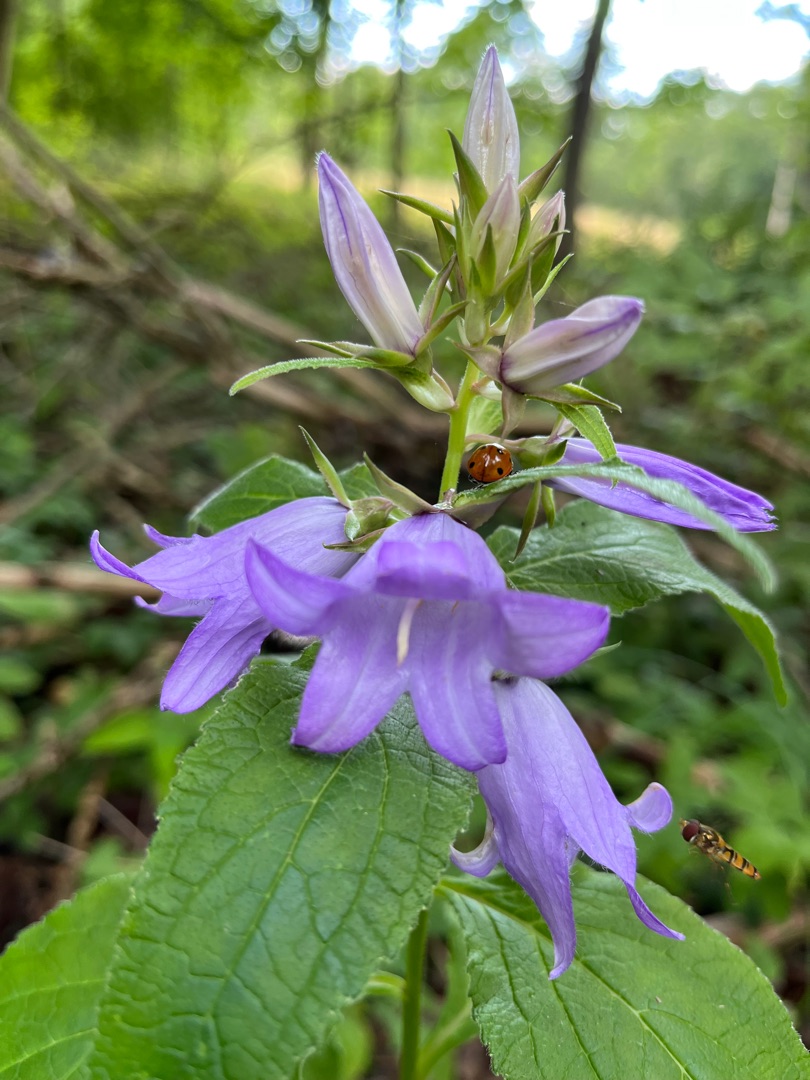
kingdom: Plantae
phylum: Tracheophyta
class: Magnoliopsida
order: Asterales
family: Campanulaceae
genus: Campanula
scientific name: Campanula latifolia
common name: Bredbladet klokke
